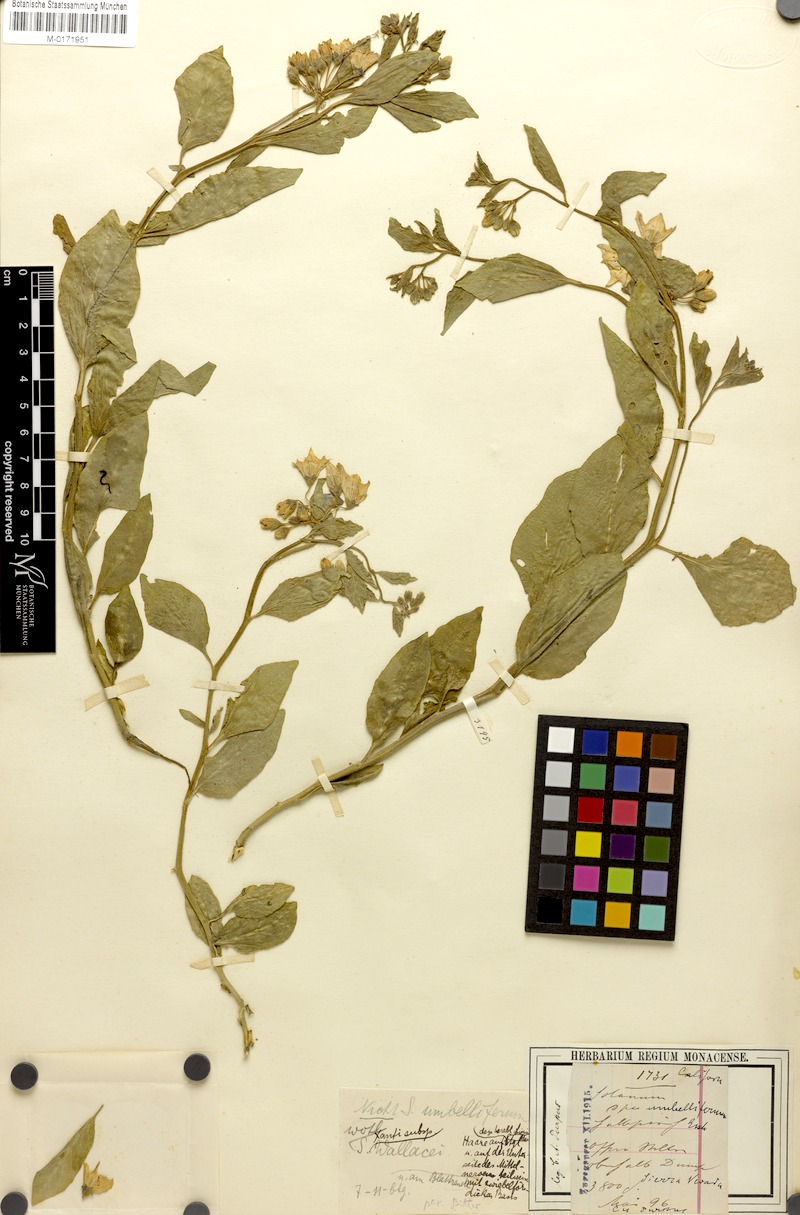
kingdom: Plantae
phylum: Tracheophyta
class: Magnoliopsida
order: Solanales
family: Solanaceae
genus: Solanum
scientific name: Solanum umbelliferum
